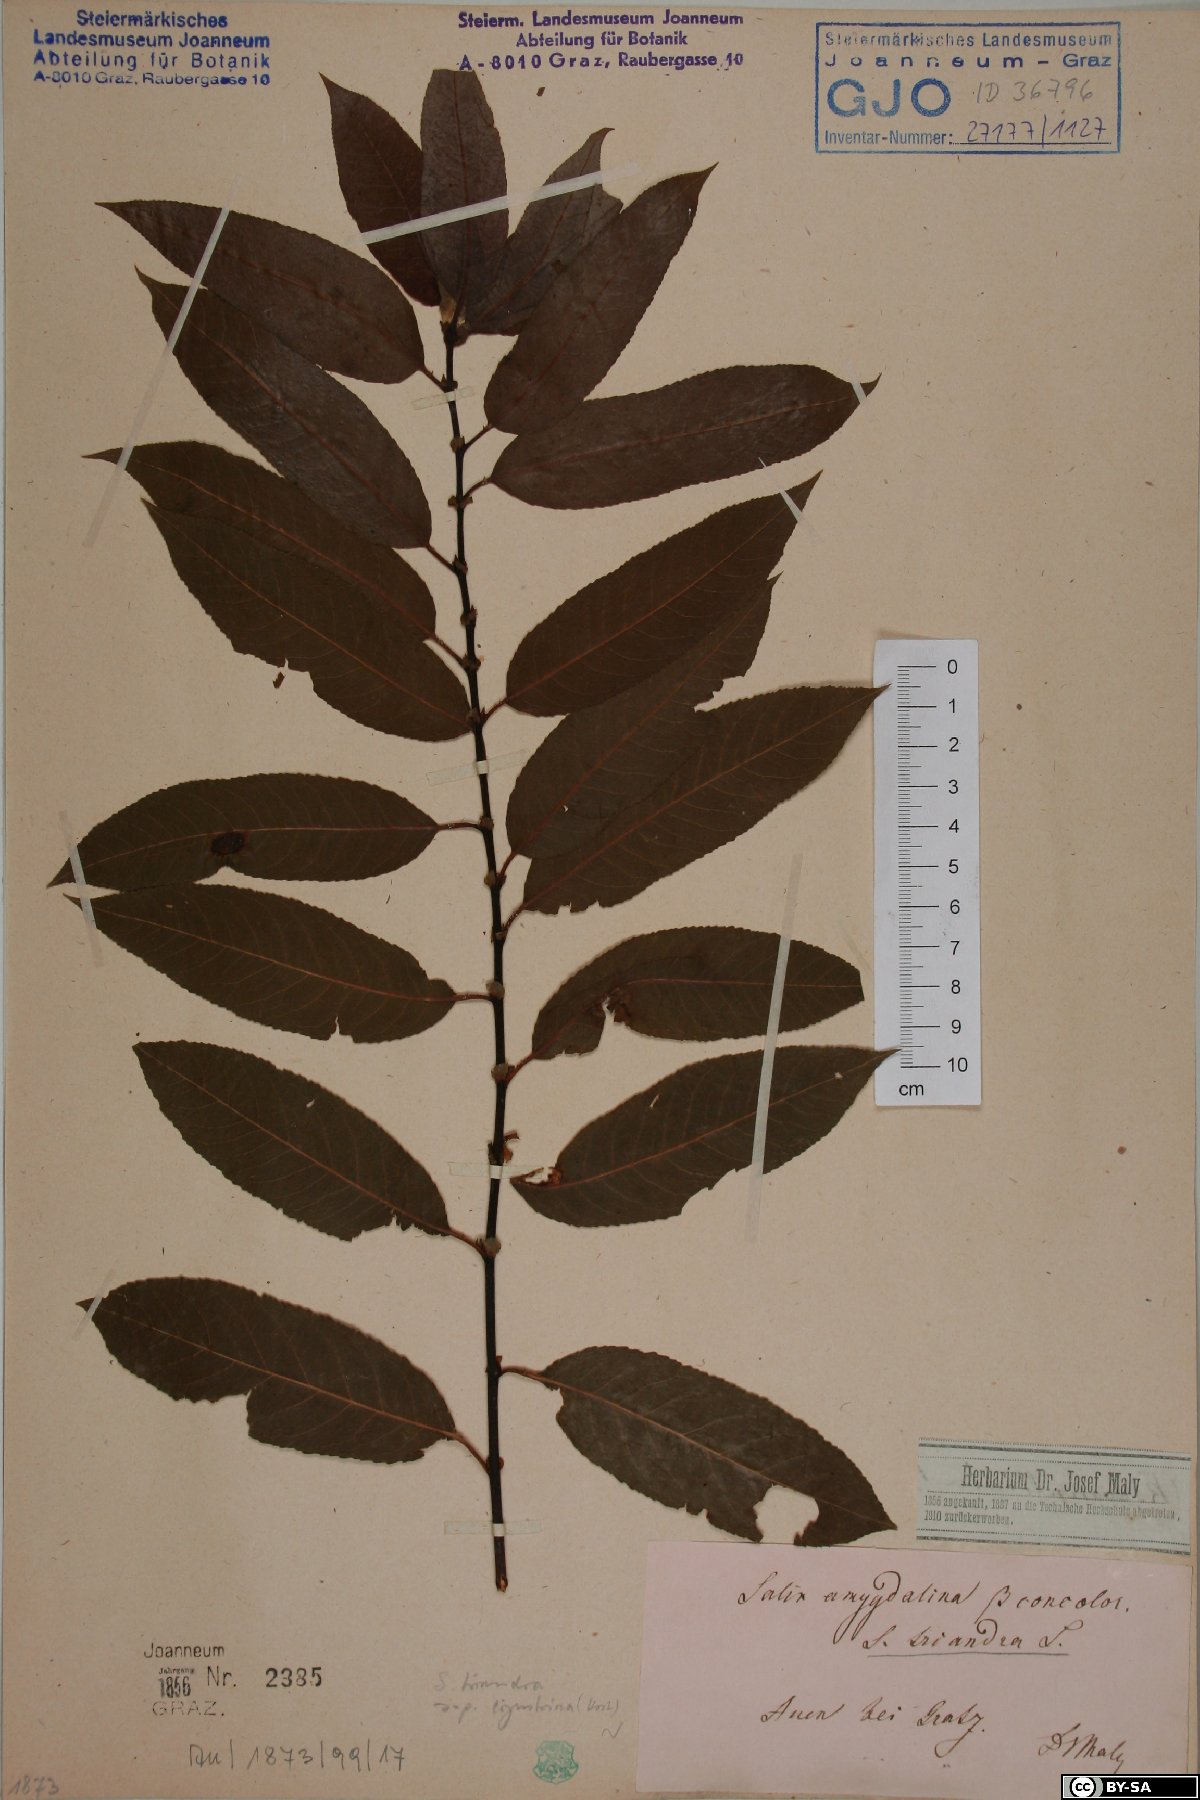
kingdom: Plantae
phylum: Tracheophyta
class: Magnoliopsida
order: Malpighiales
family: Salicaceae
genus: Salix
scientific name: Salix triandra
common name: Almond willow
